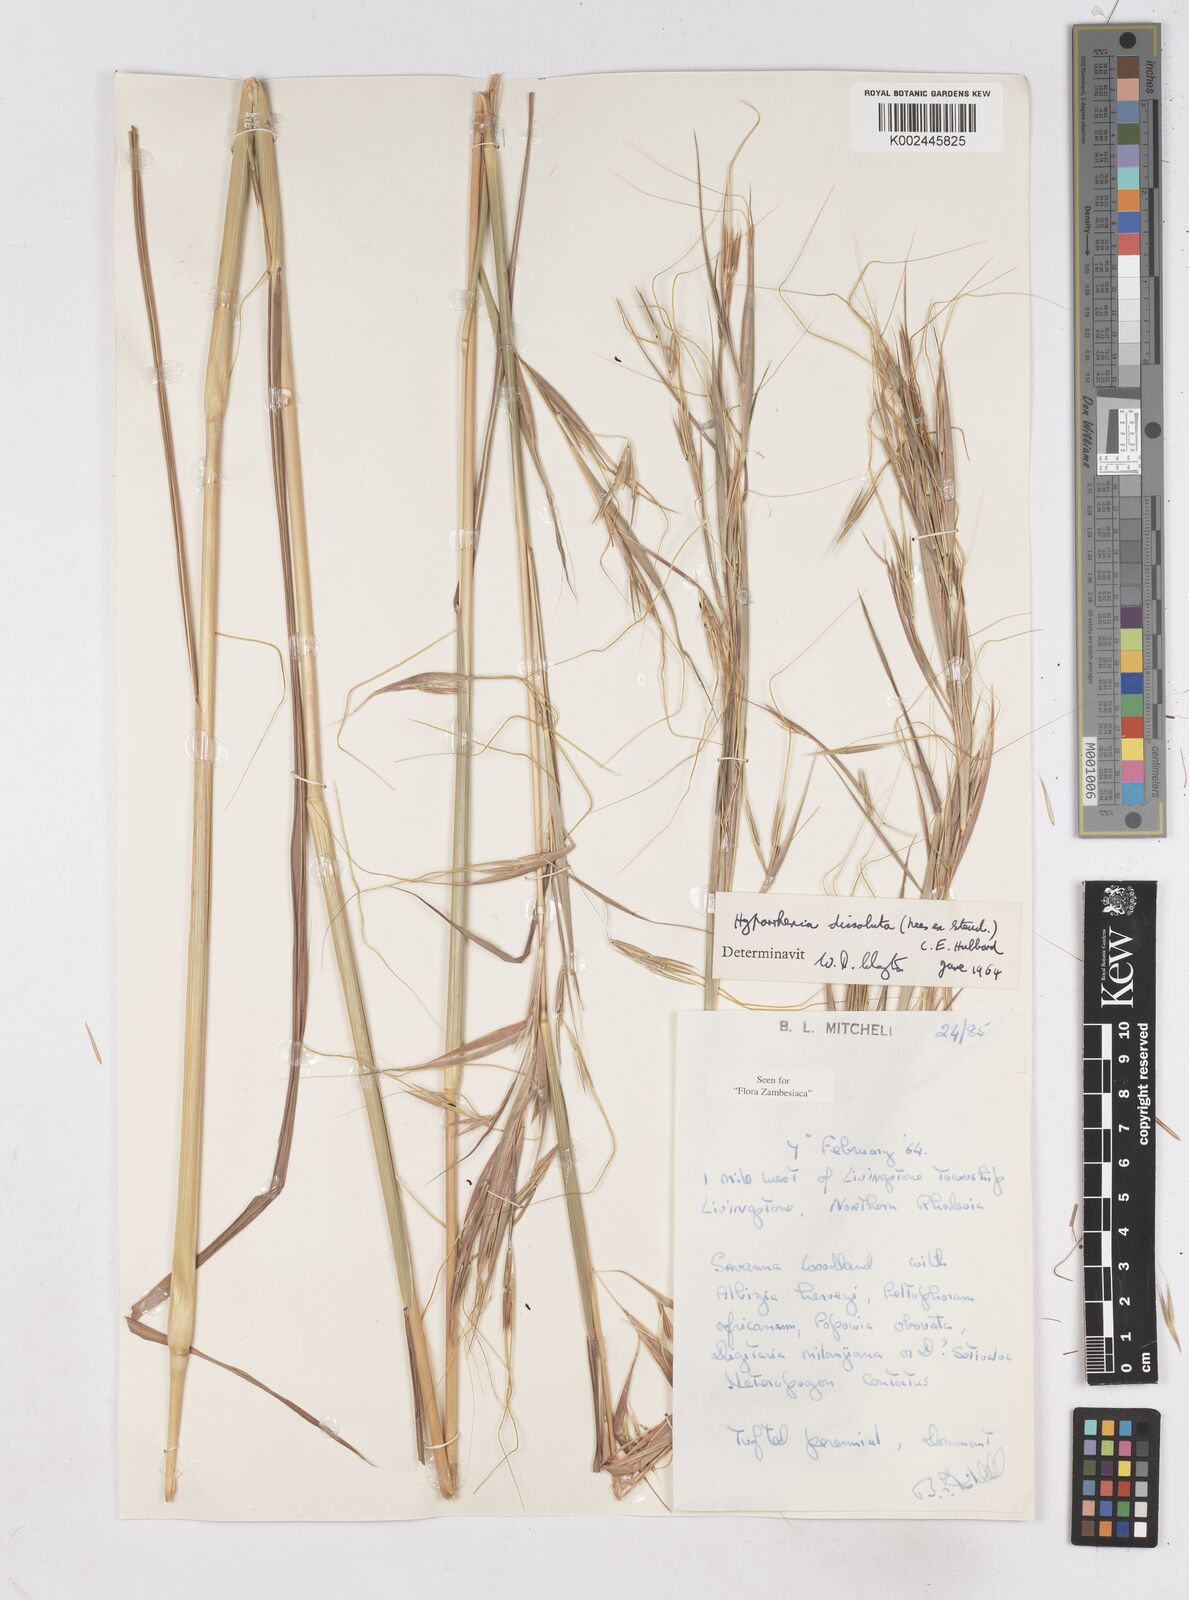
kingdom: Plantae
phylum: Tracheophyta
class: Liliopsida
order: Poales
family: Poaceae
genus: Hyperthelia
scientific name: Hyperthelia dissoluta
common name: Yellow thatching grass
